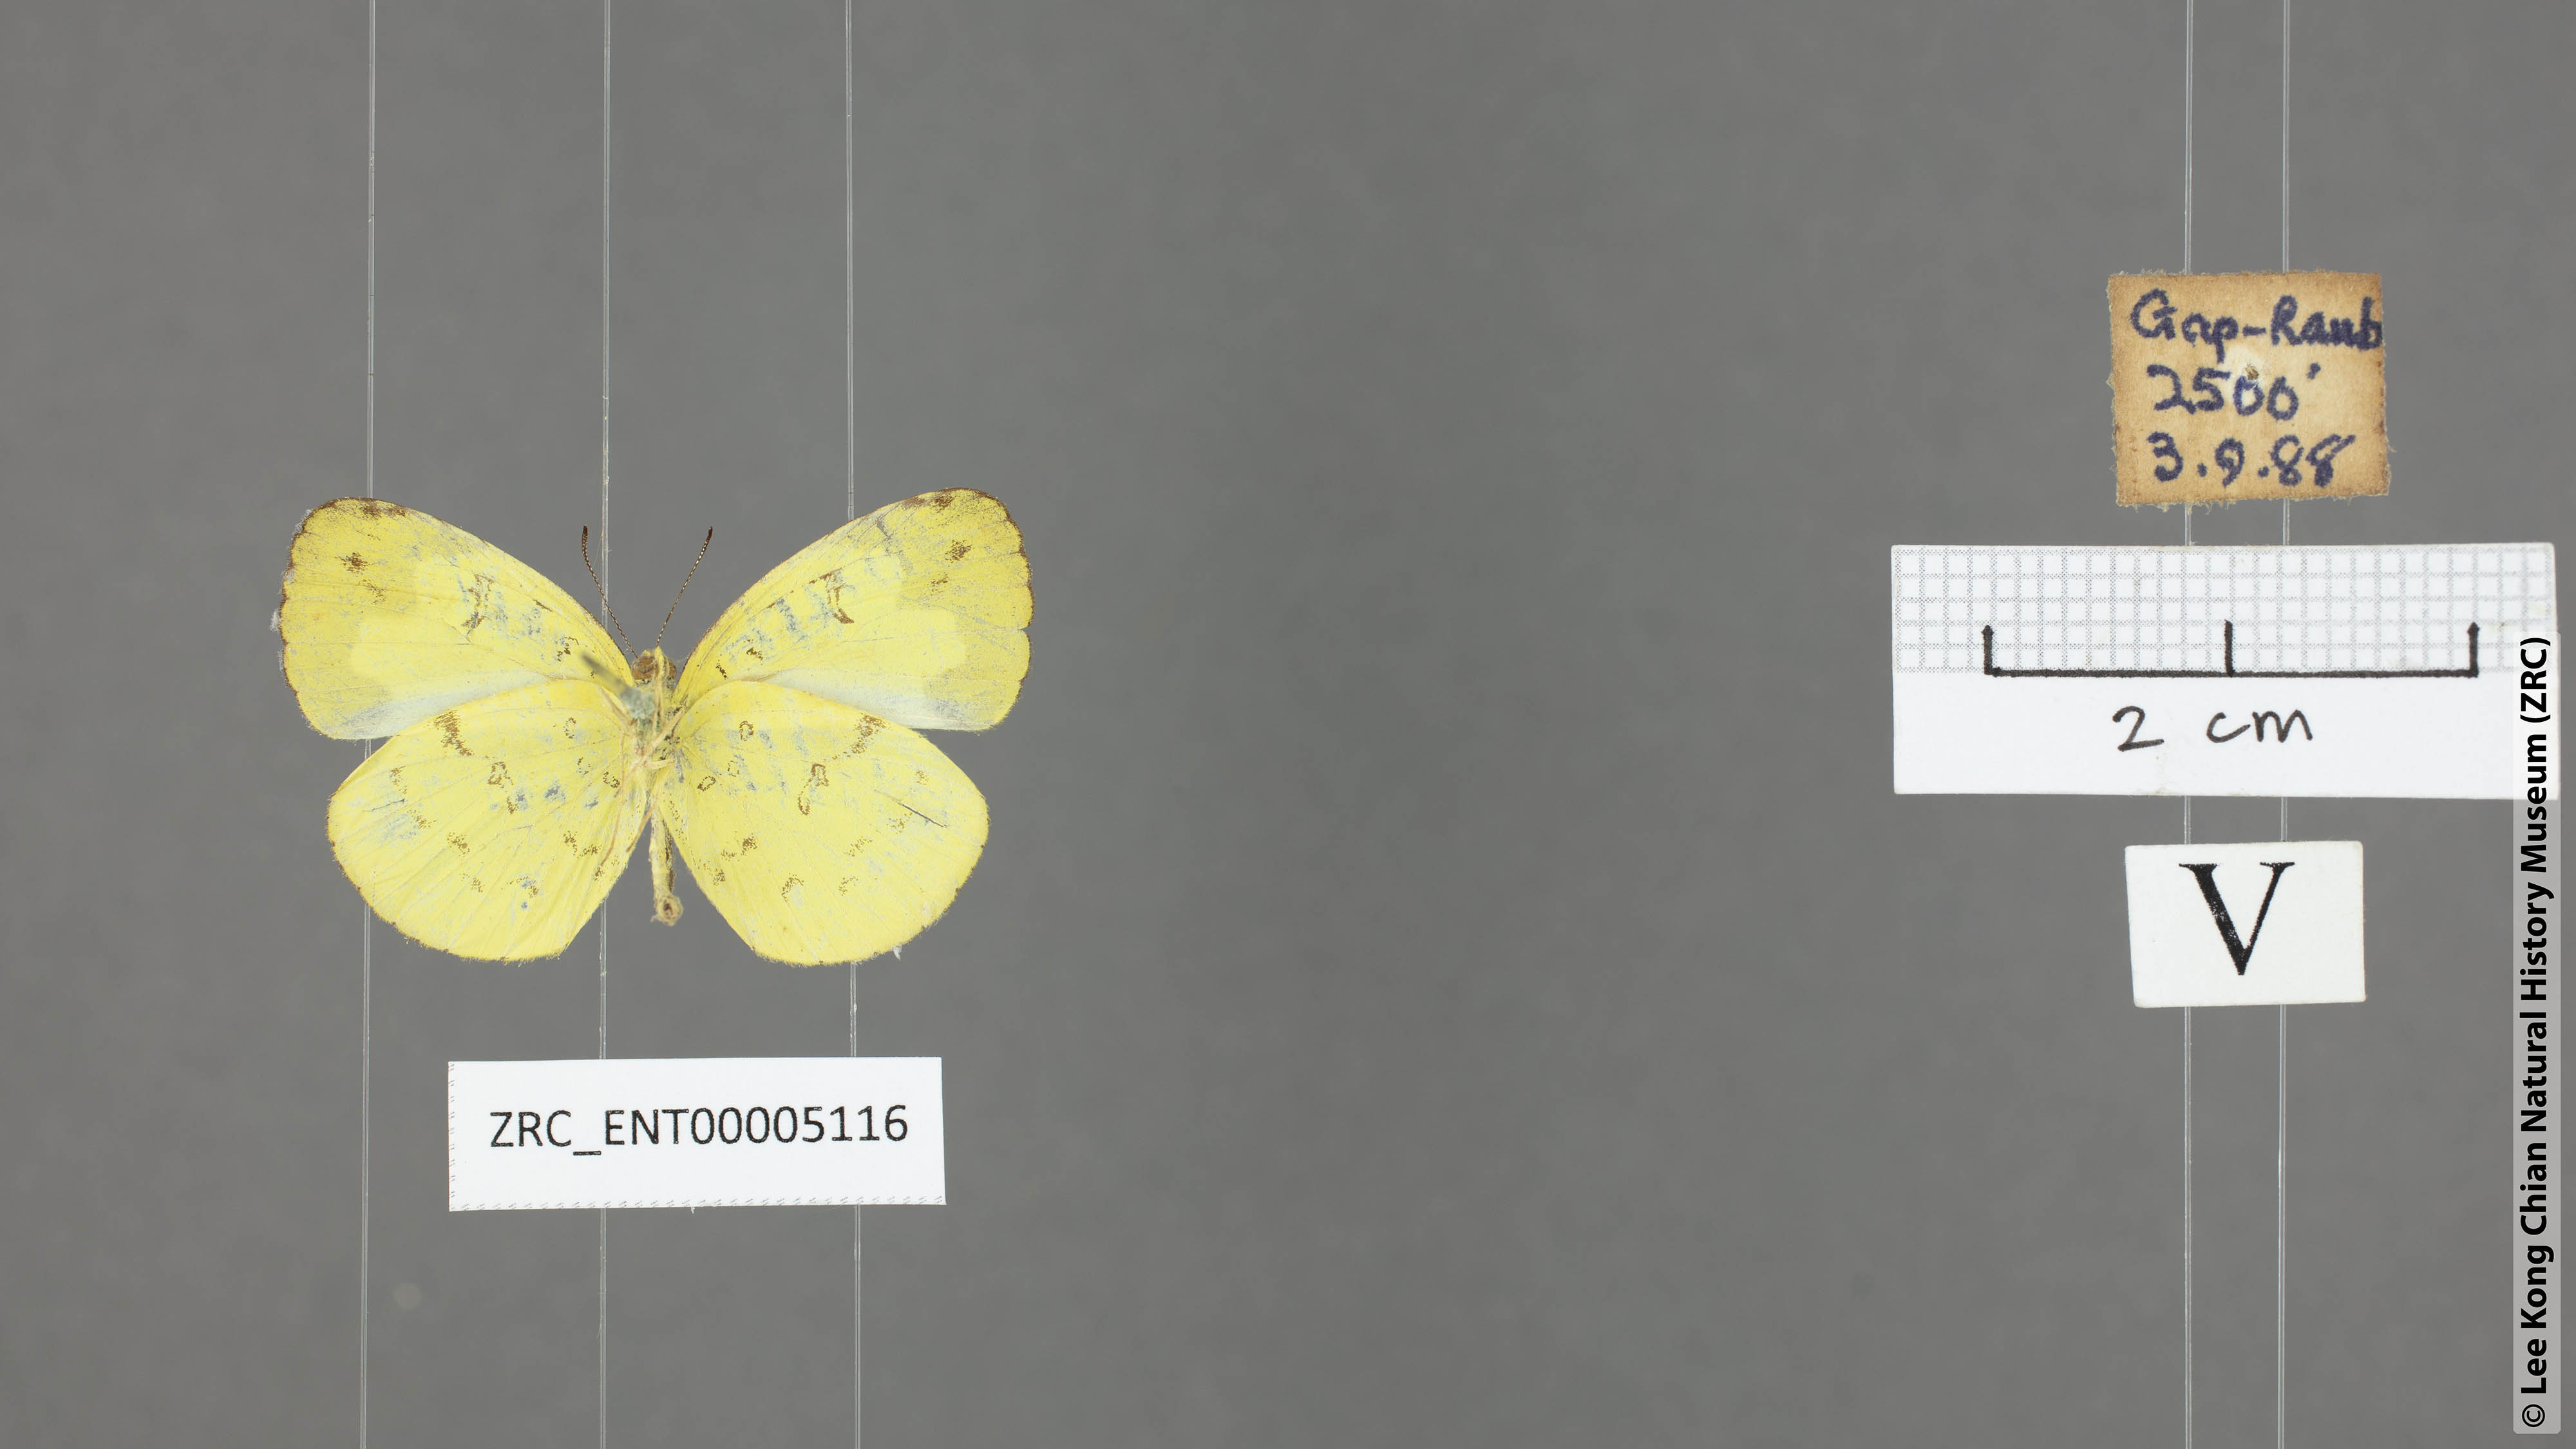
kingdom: Animalia
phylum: Arthropoda
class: Insecta
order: Lepidoptera
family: Pieridae
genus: Eurema
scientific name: Eurema ada
